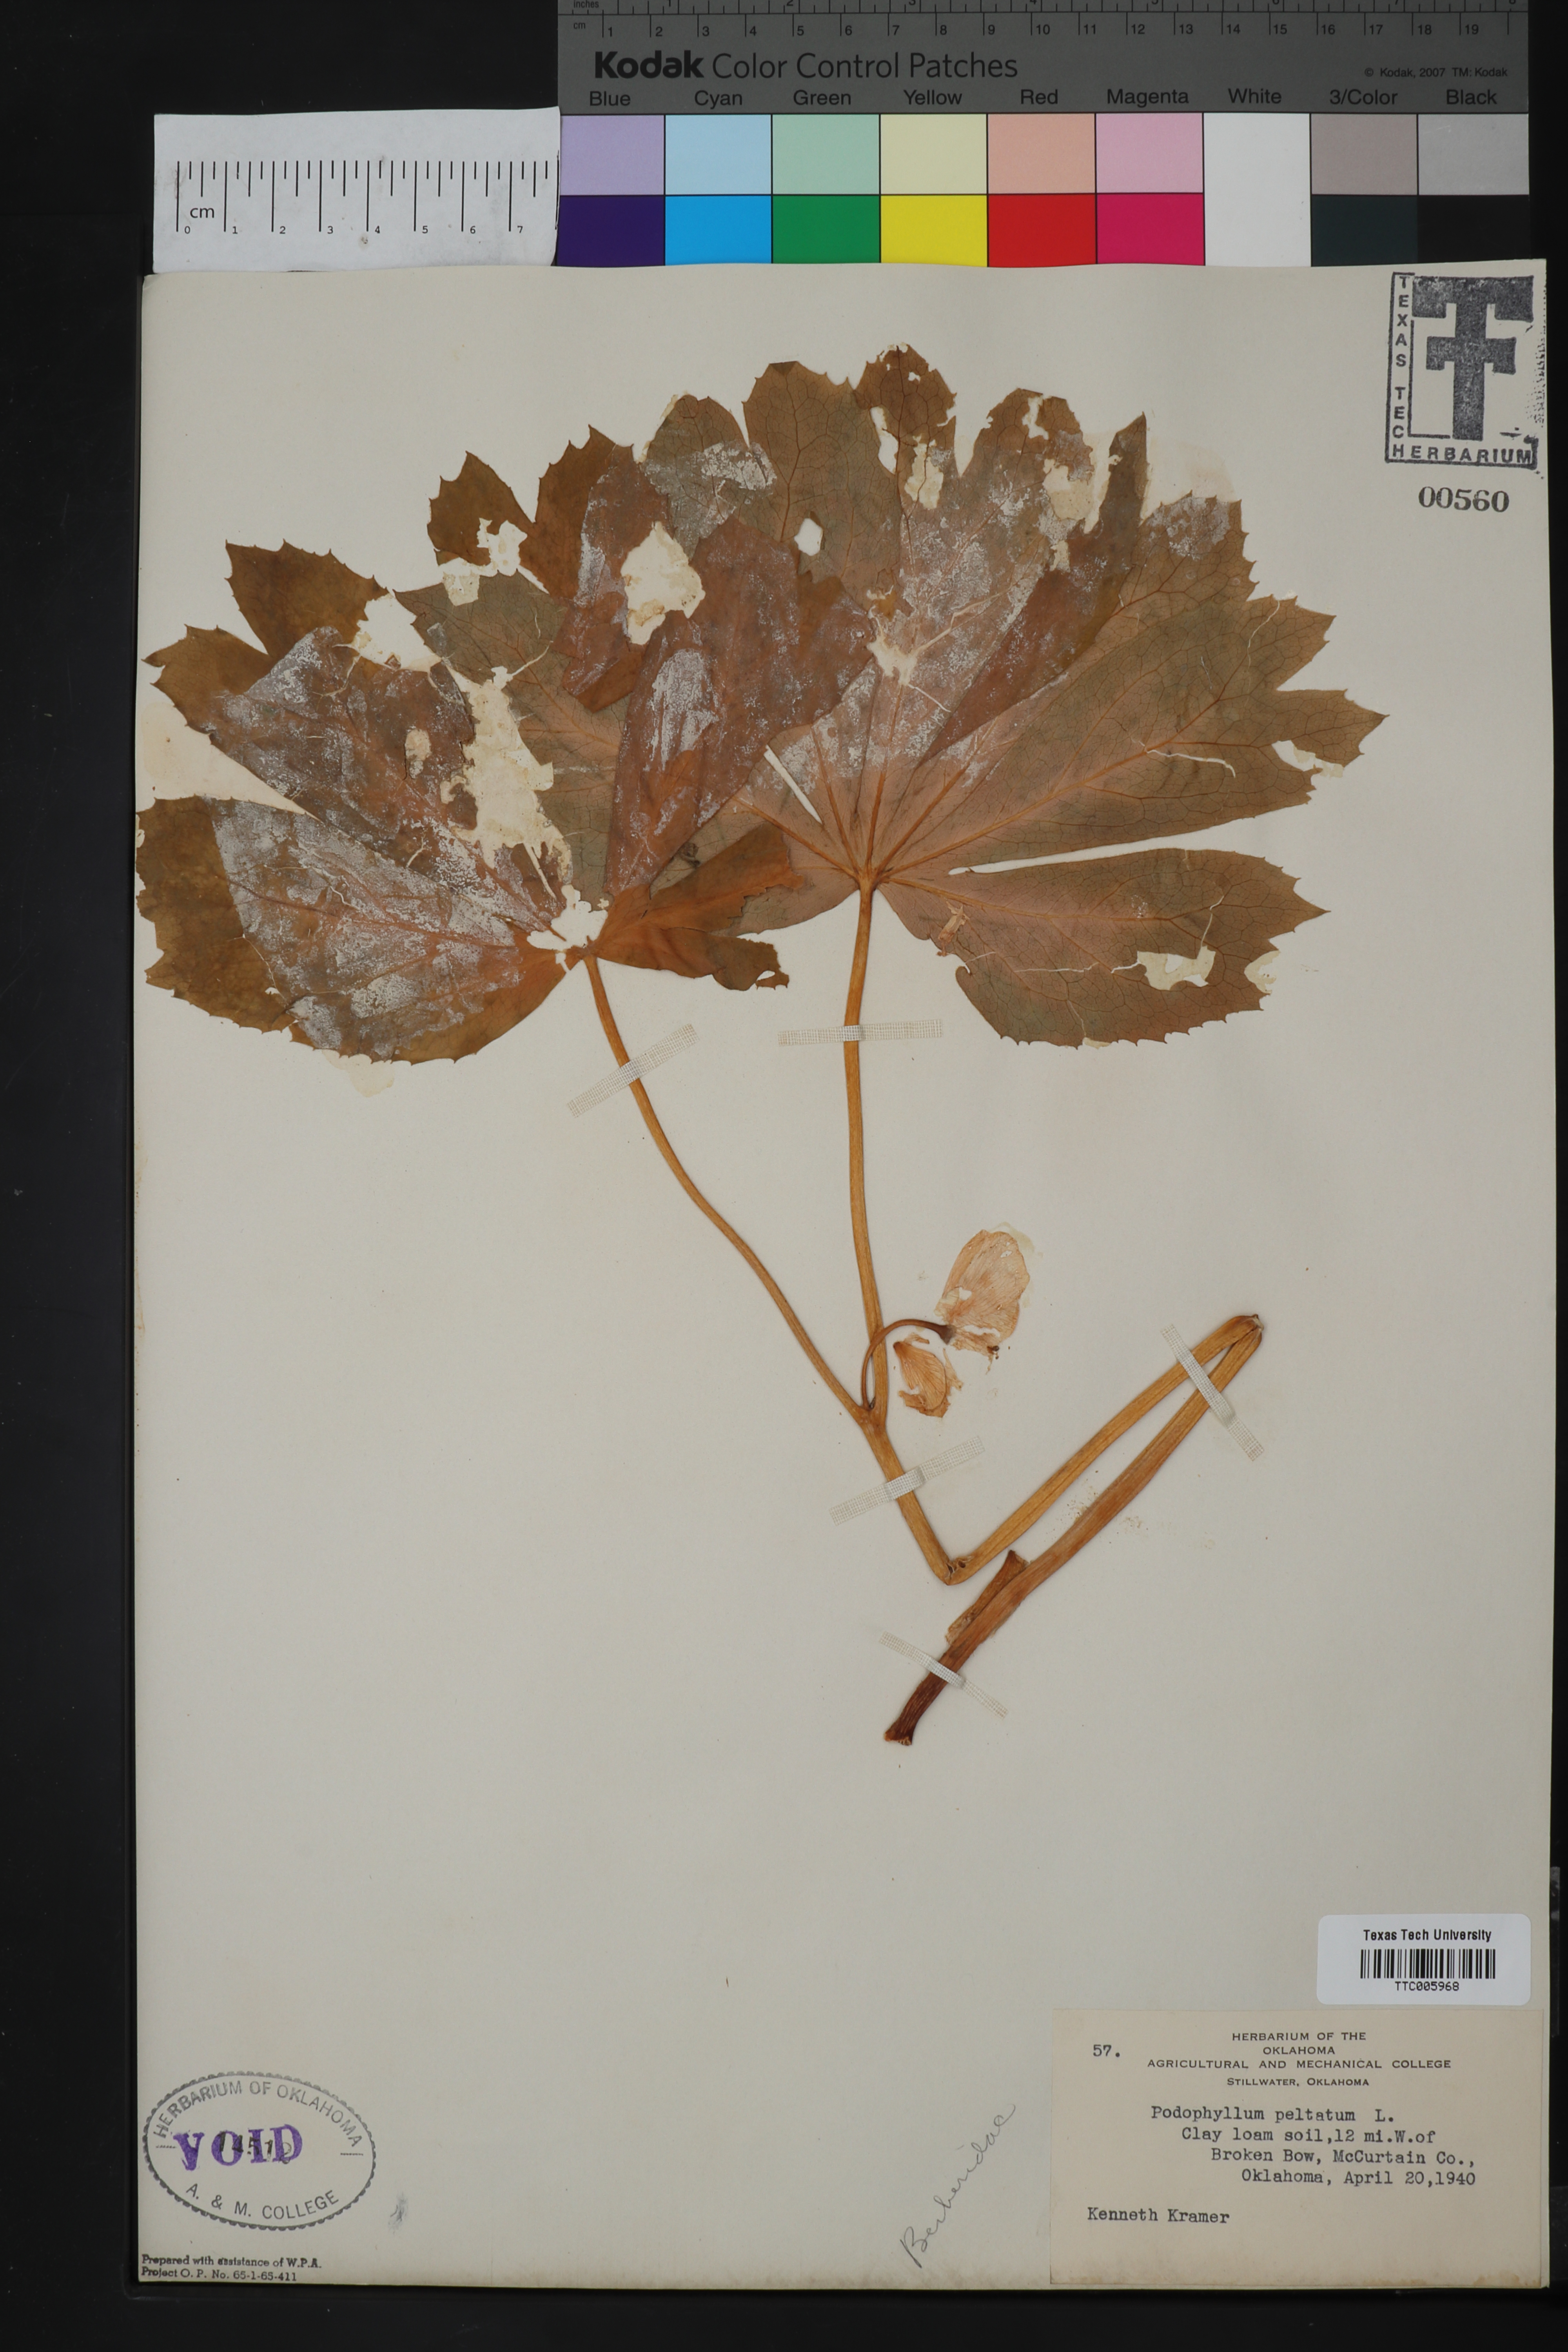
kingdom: Plantae
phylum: Tracheophyta
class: Magnoliopsida
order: Ranunculales
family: Berberidaceae
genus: Podophyllum
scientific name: Podophyllum peltatum
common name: Wild mandrake
